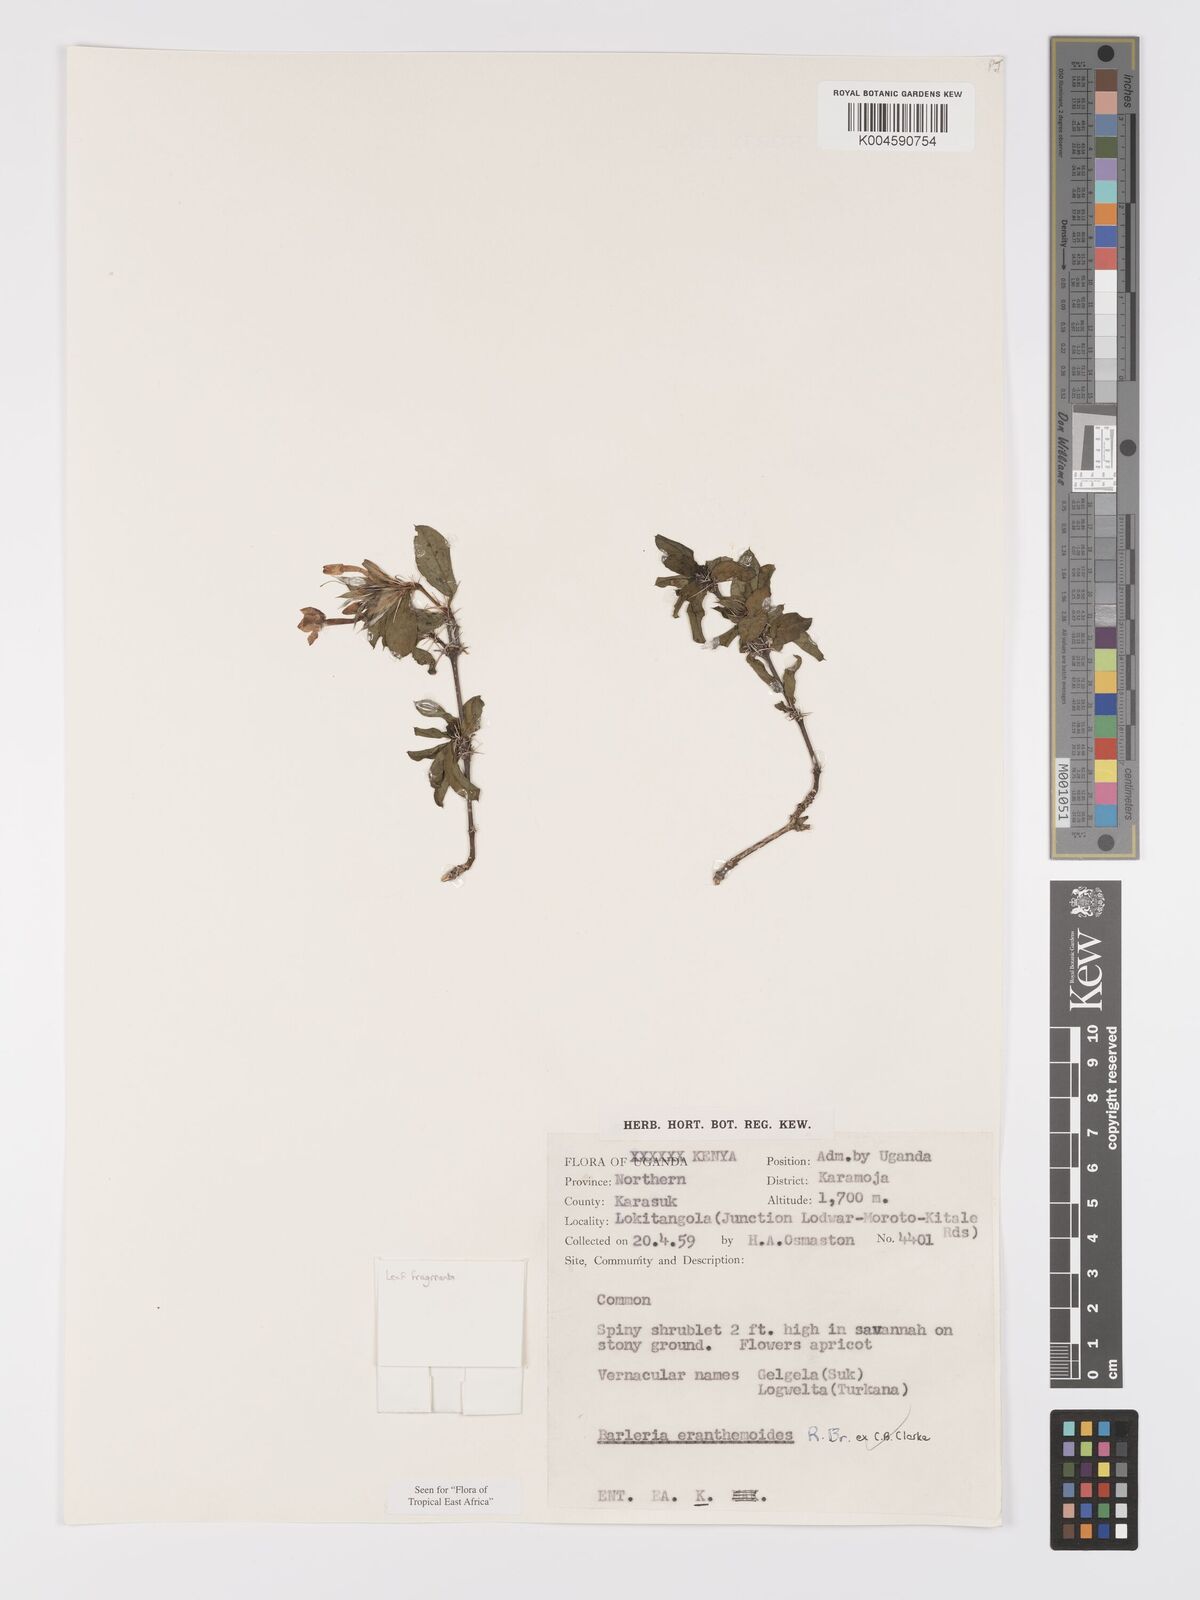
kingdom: Plantae
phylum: Tracheophyta
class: Magnoliopsida
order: Lamiales
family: Acanthaceae
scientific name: Acanthaceae
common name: Acanthaceae
